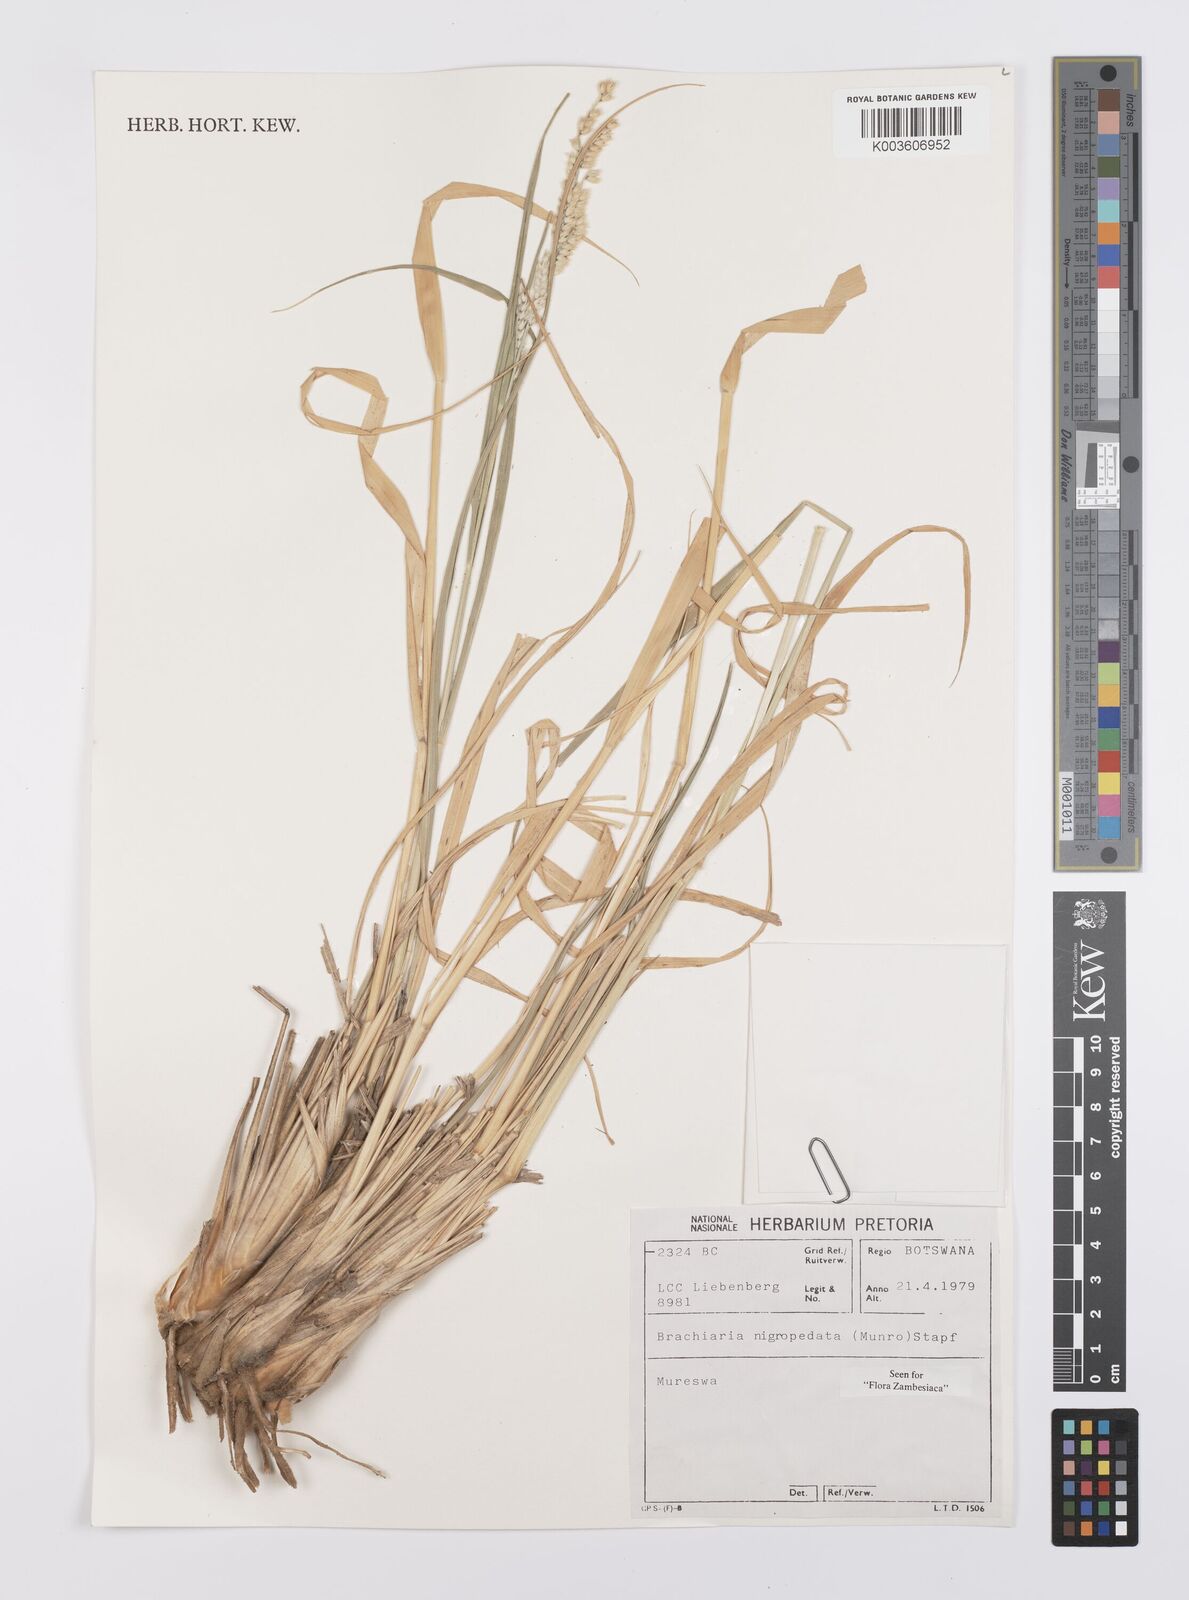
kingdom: Plantae
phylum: Tracheophyta
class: Liliopsida
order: Poales
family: Poaceae
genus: Urochloa
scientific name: Urochloa nigropedata
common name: Spotted signal grass
